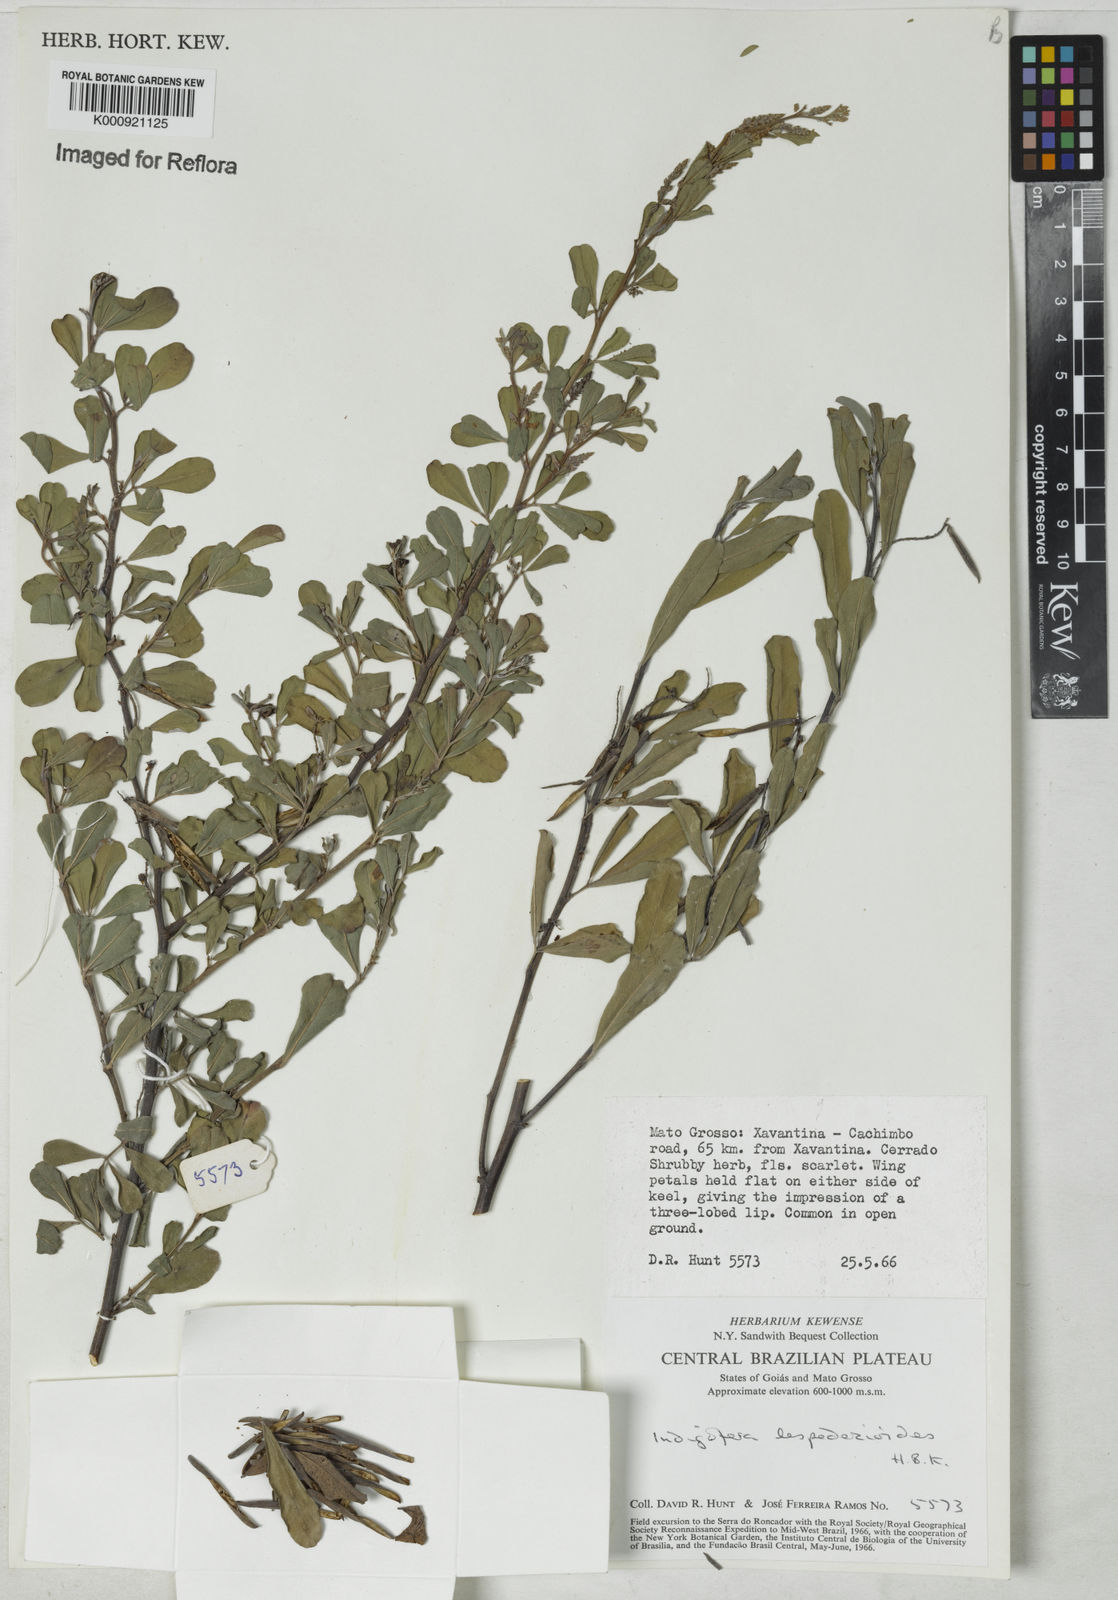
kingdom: Plantae
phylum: Tracheophyta
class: Magnoliopsida
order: Fabales
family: Fabaceae
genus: Indigofera
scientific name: Indigofera lespedezioides
